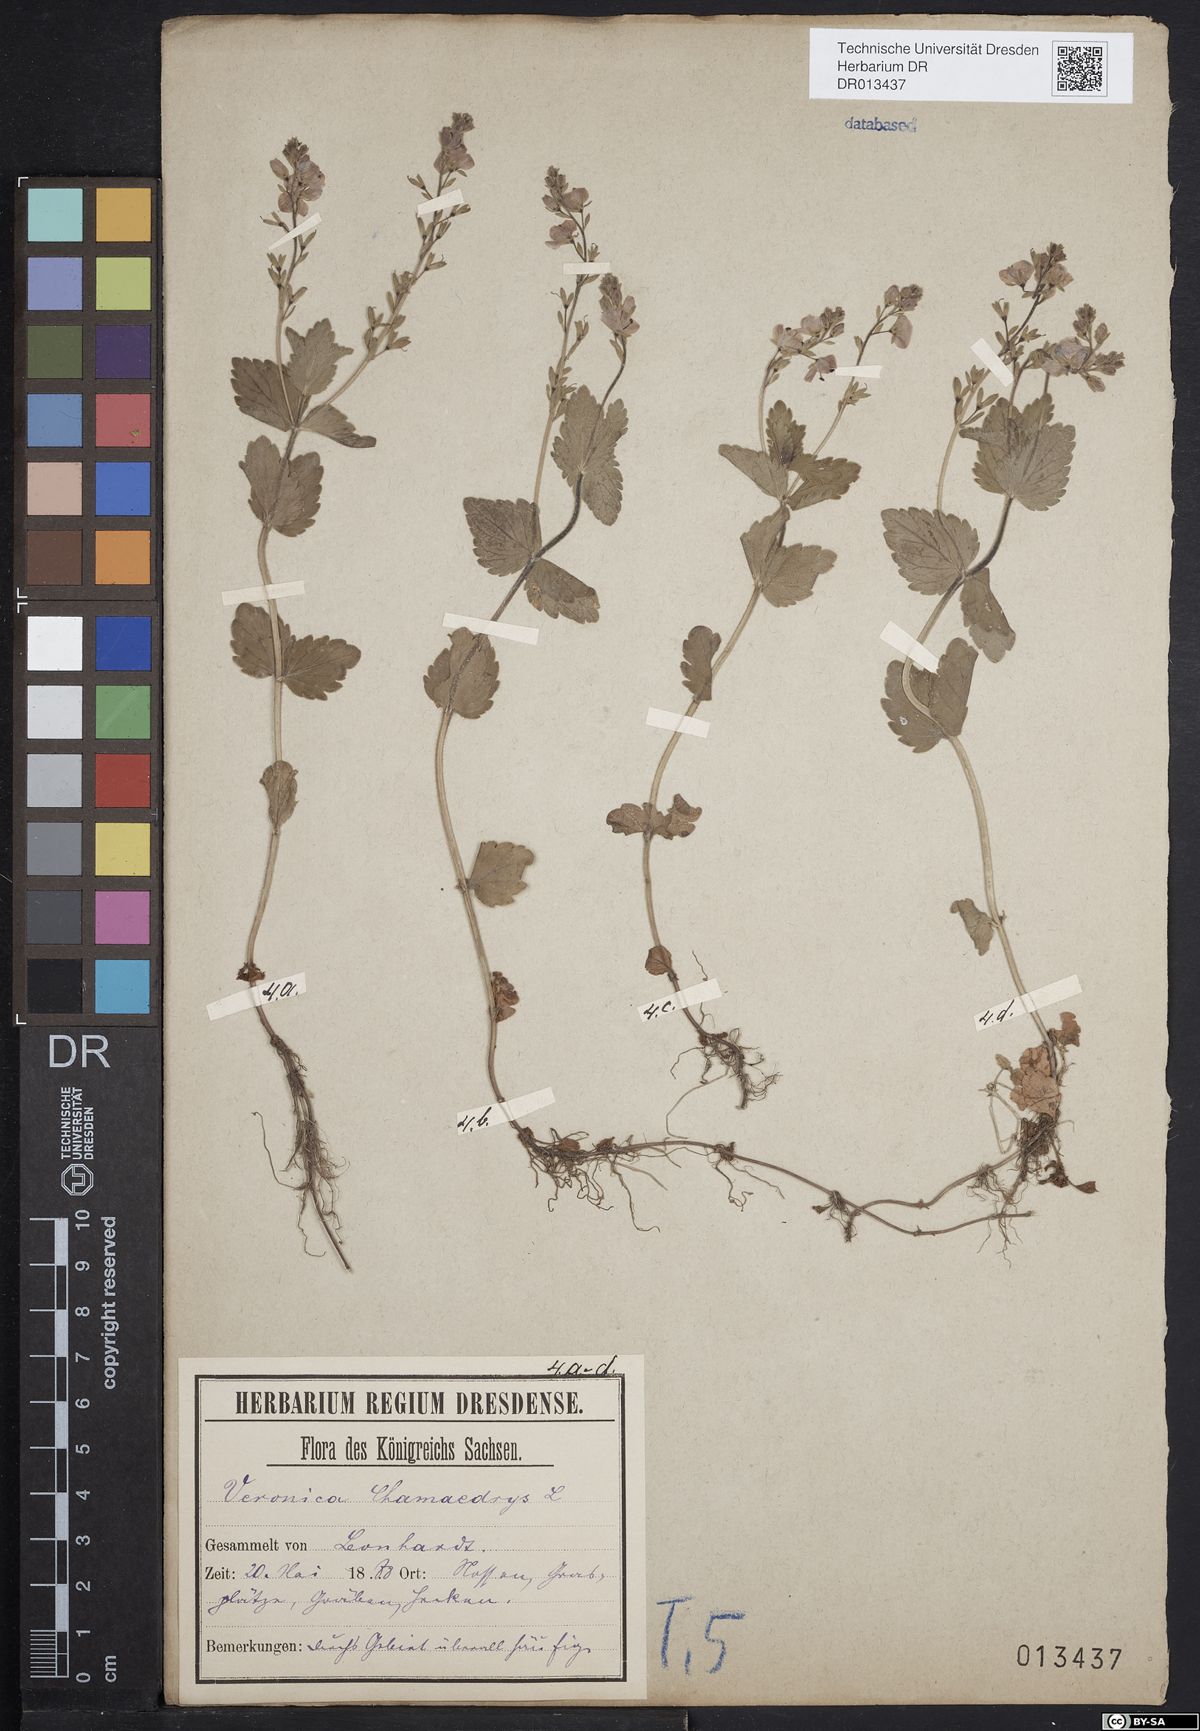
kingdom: Plantae
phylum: Tracheophyta
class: Magnoliopsida
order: Lamiales
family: Plantaginaceae
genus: Veronica
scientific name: Veronica chamaedrys
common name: Germander speedwell
